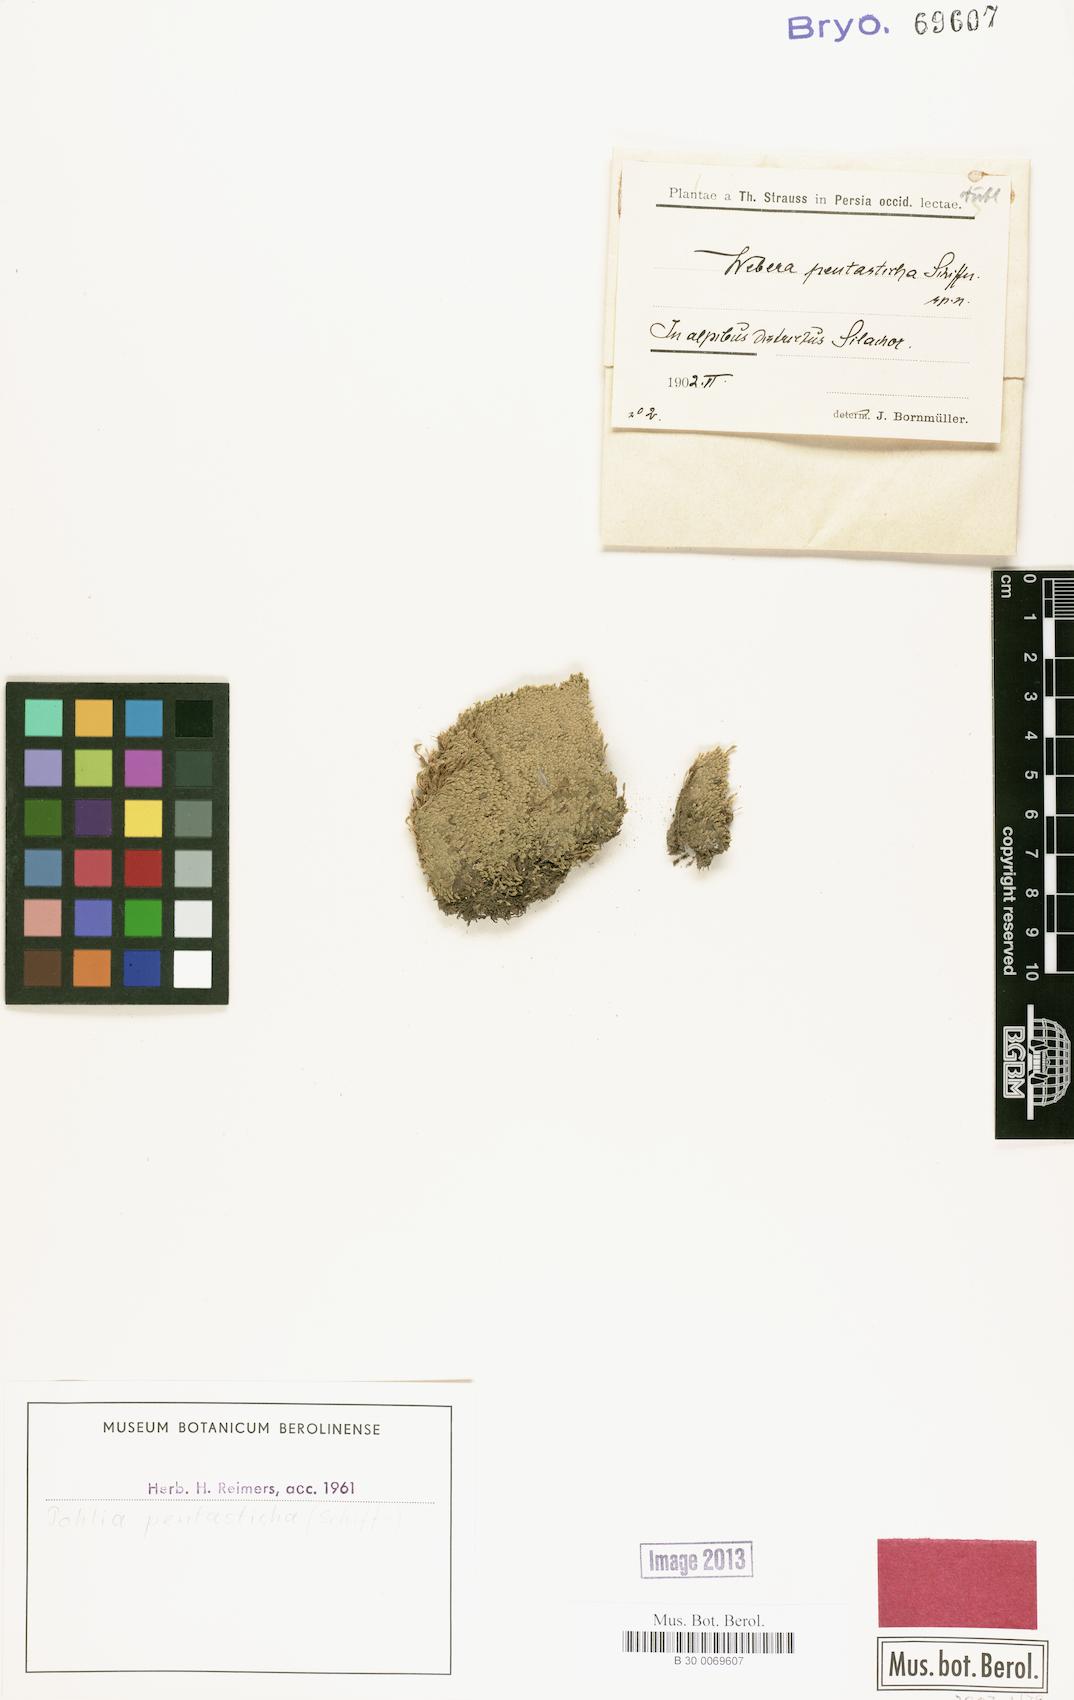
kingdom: Plantae
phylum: Bryophyta
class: Bryopsida
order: Bryales
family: Mniaceae
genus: Pohlia
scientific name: Pohlia pentasticha
